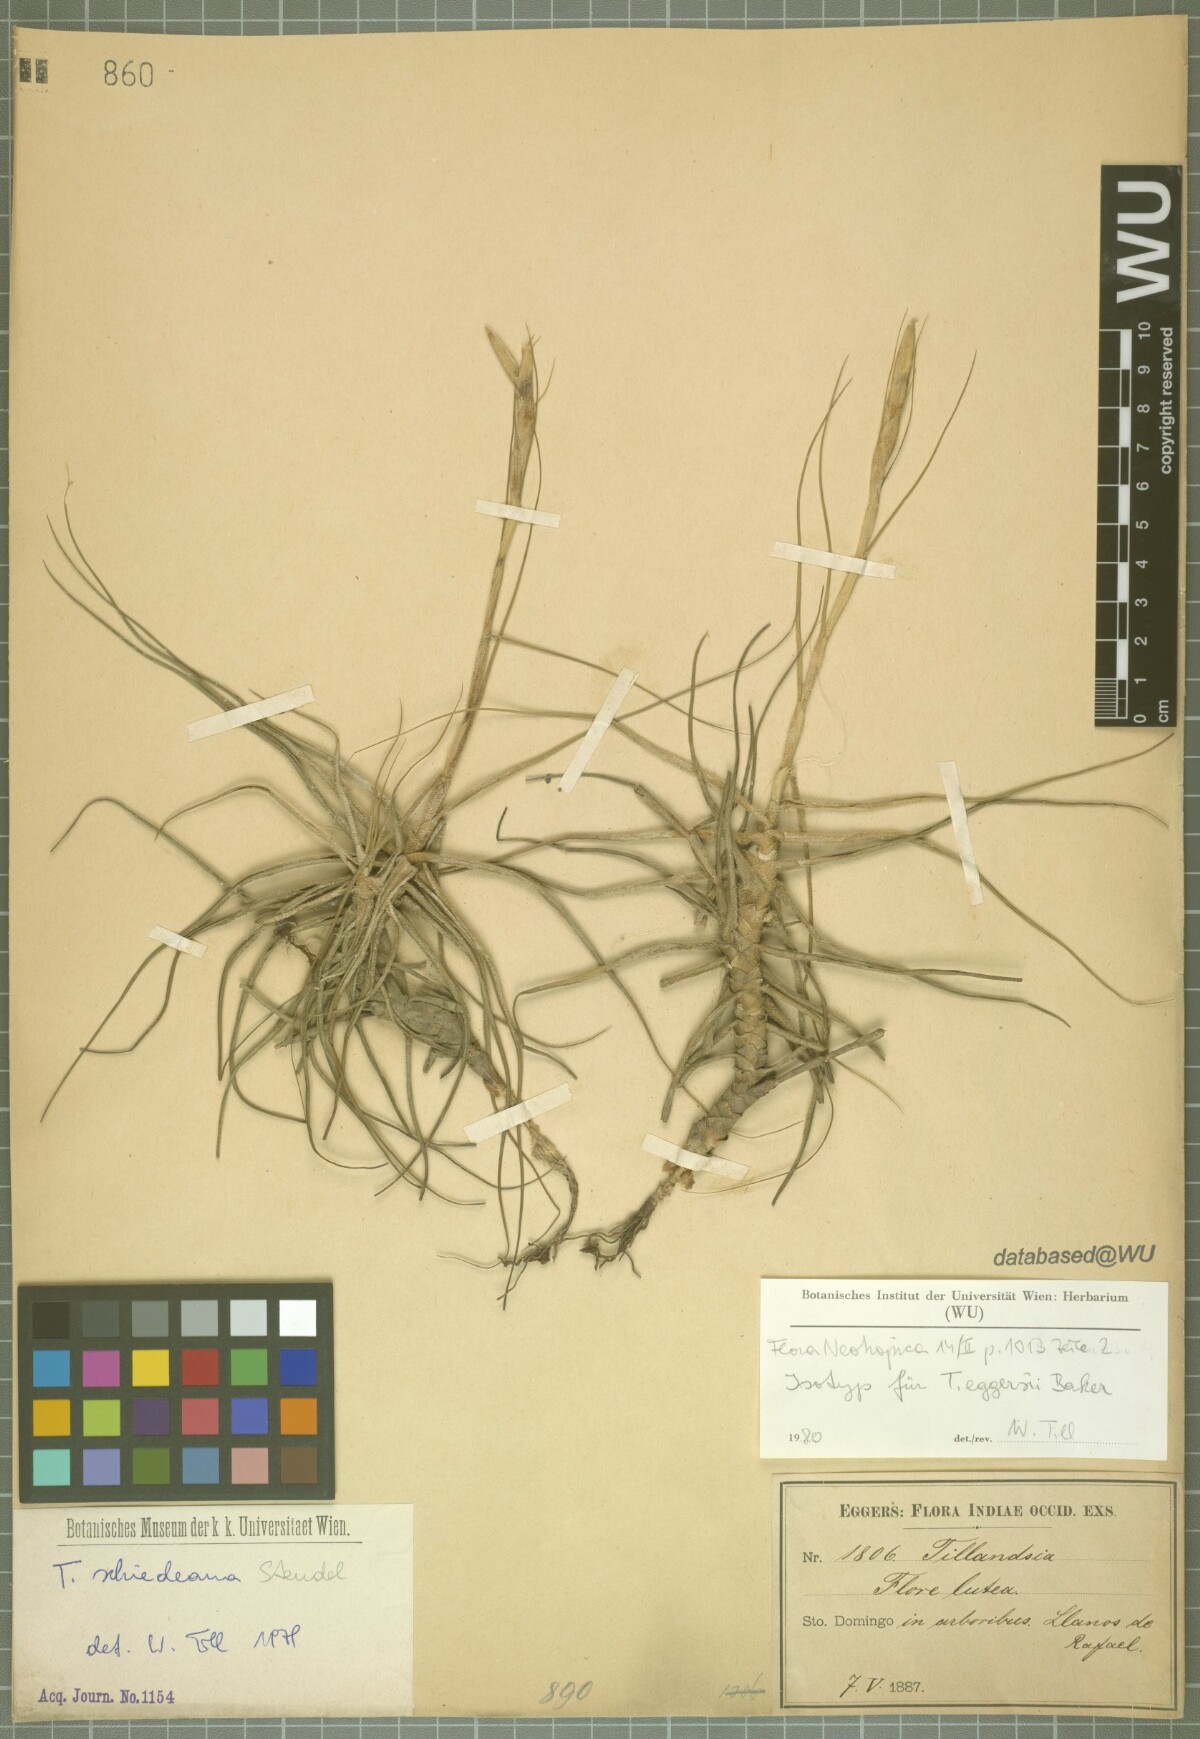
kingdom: Plantae
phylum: Tracheophyta
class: Liliopsida
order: Poales
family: Bromeliaceae
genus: Tillandsia
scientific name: Tillandsia schiedeana
